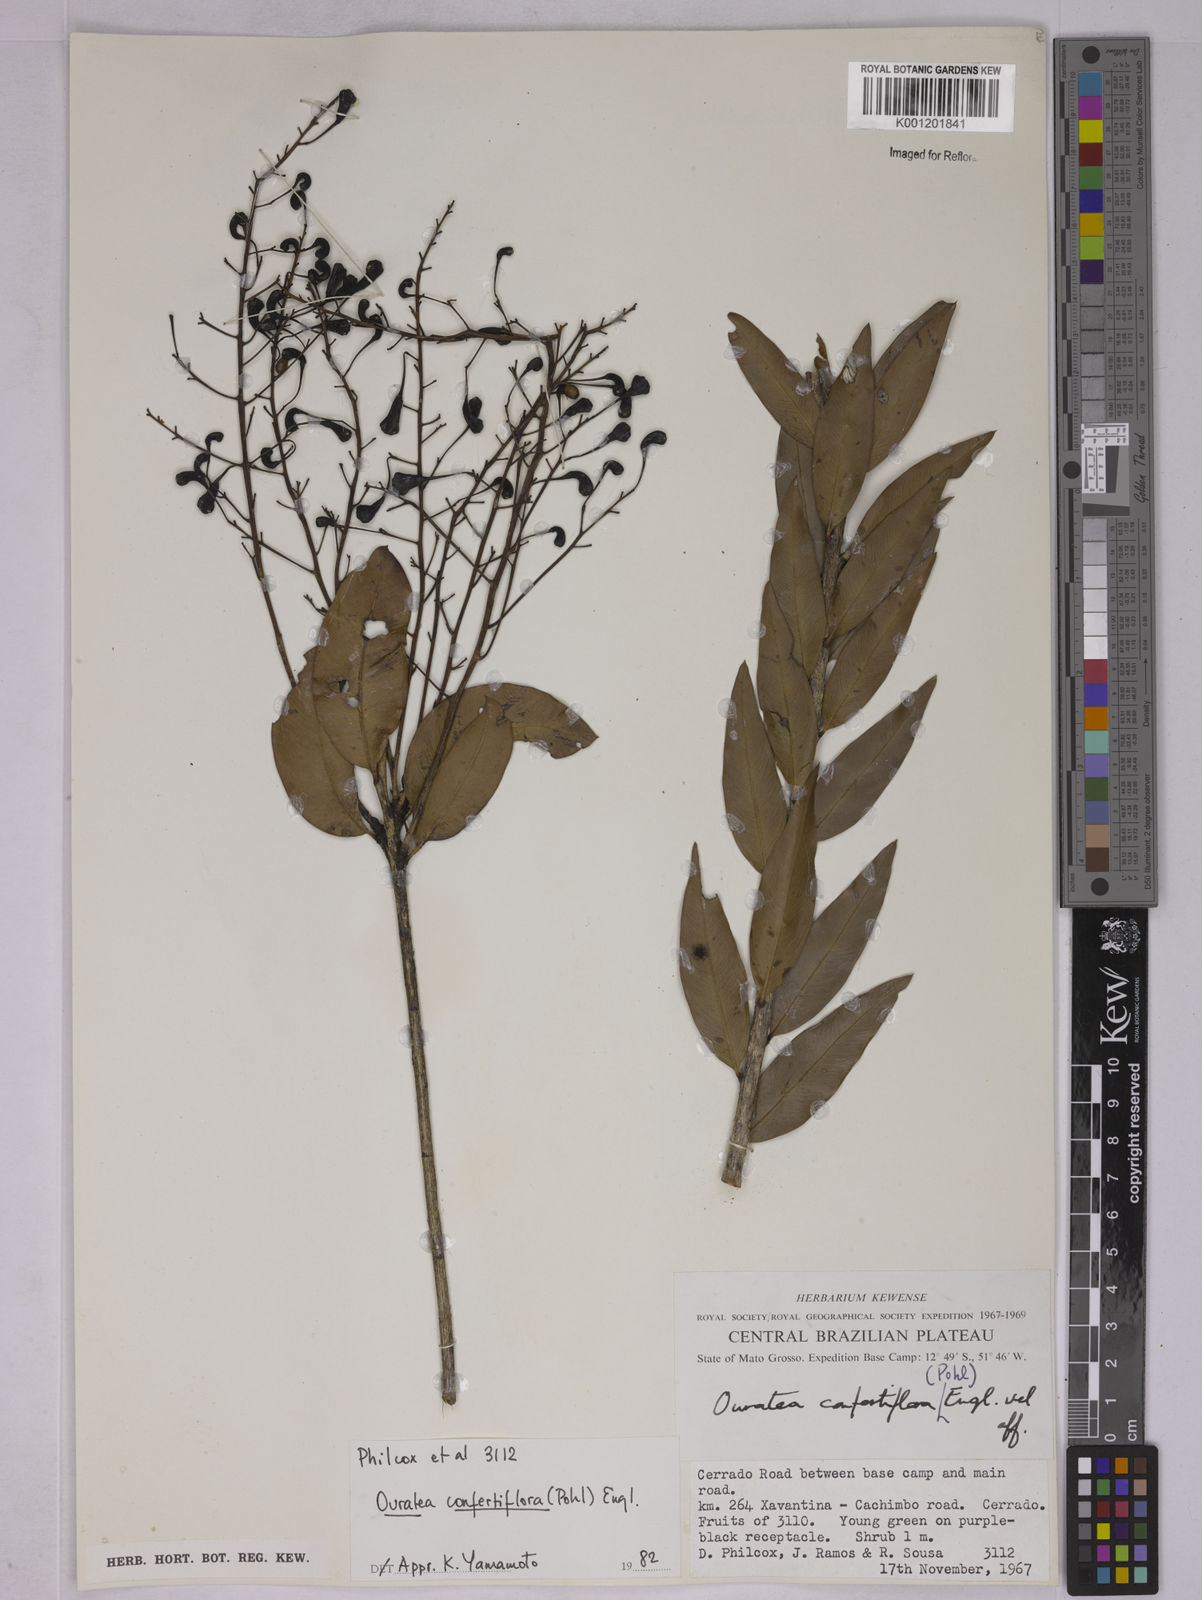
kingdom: Plantae
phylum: Tracheophyta
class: Magnoliopsida
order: Malpighiales
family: Ochnaceae
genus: Ouratea
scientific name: Ouratea confertiflora
